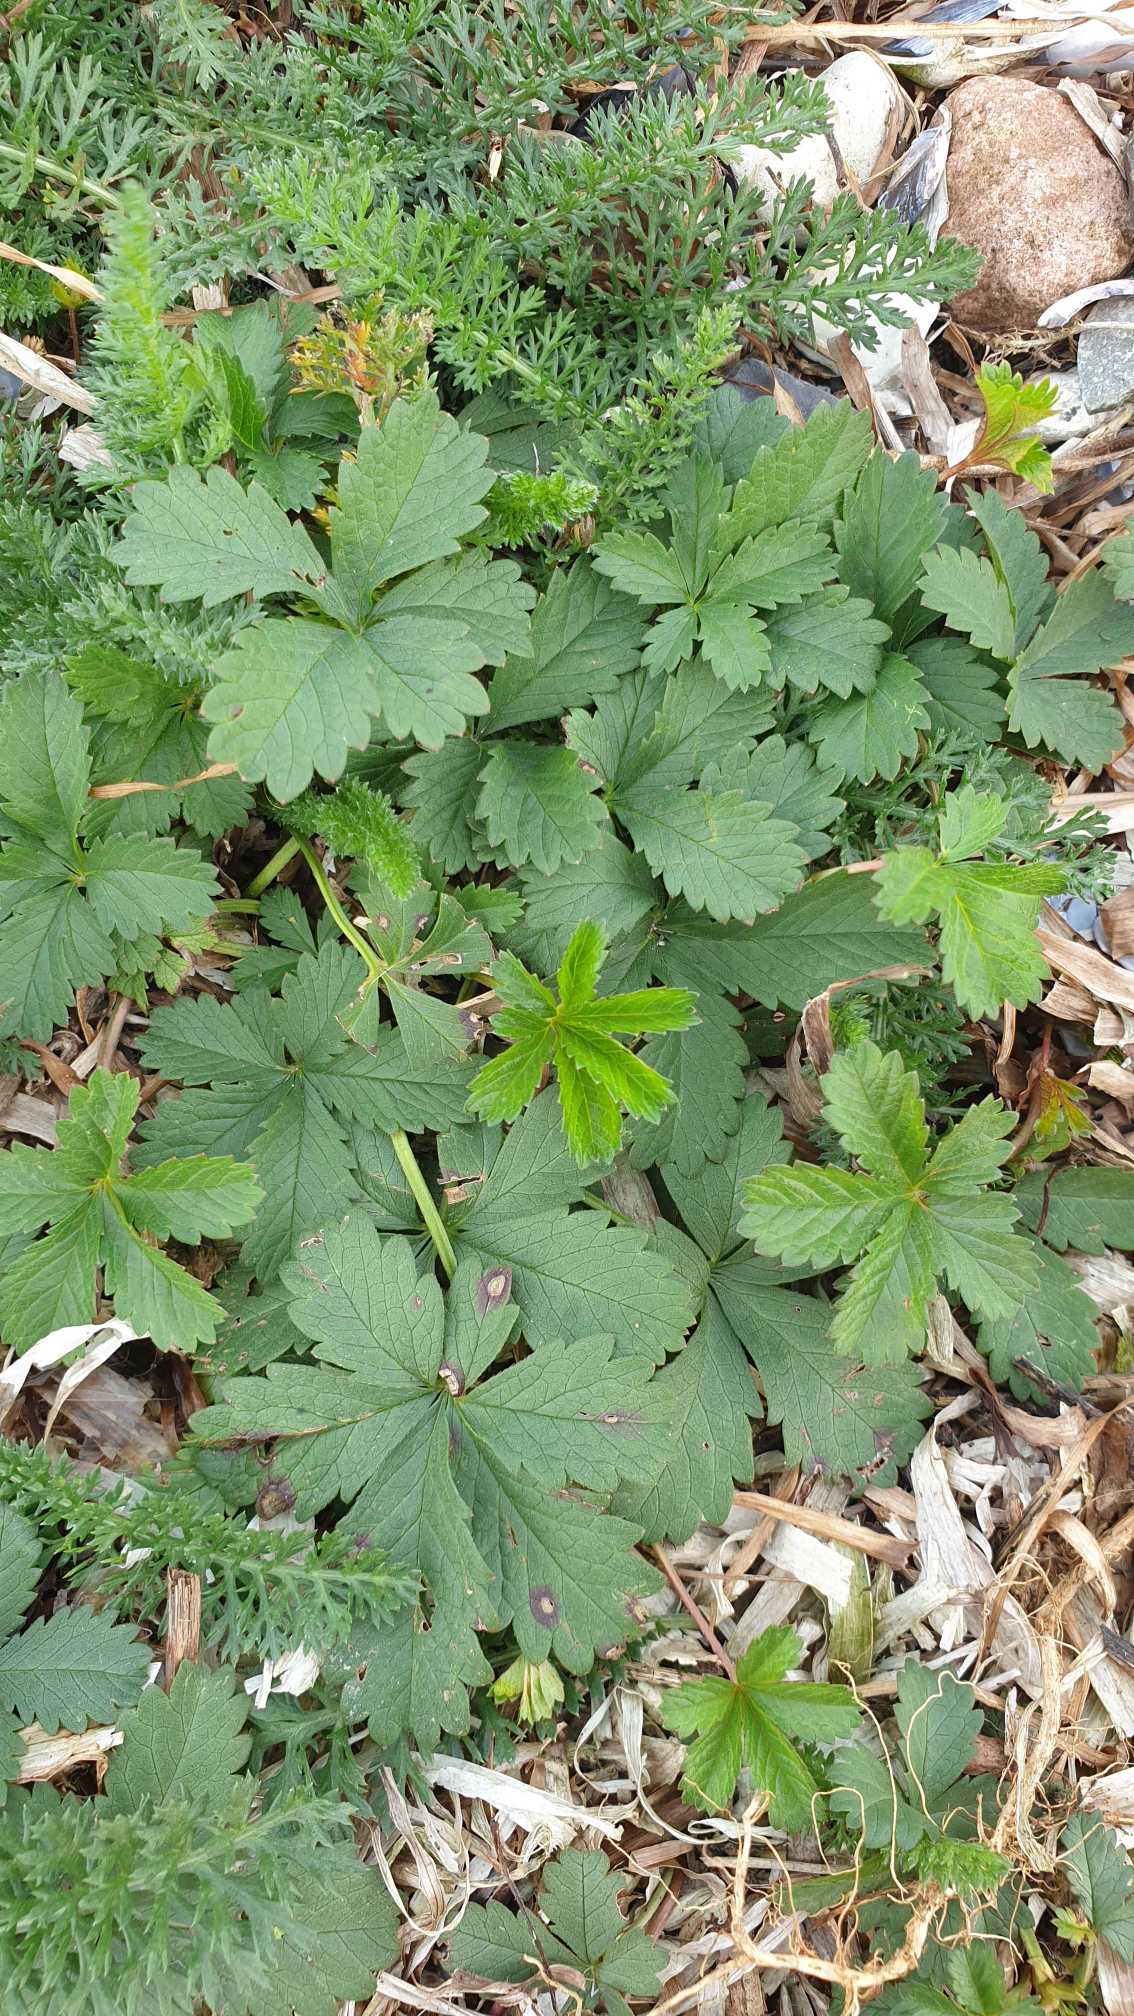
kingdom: Plantae
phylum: Tracheophyta
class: Magnoliopsida
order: Rosales
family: Rosaceae
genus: Potentilla
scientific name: Potentilla reptans
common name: Krybende potentil
